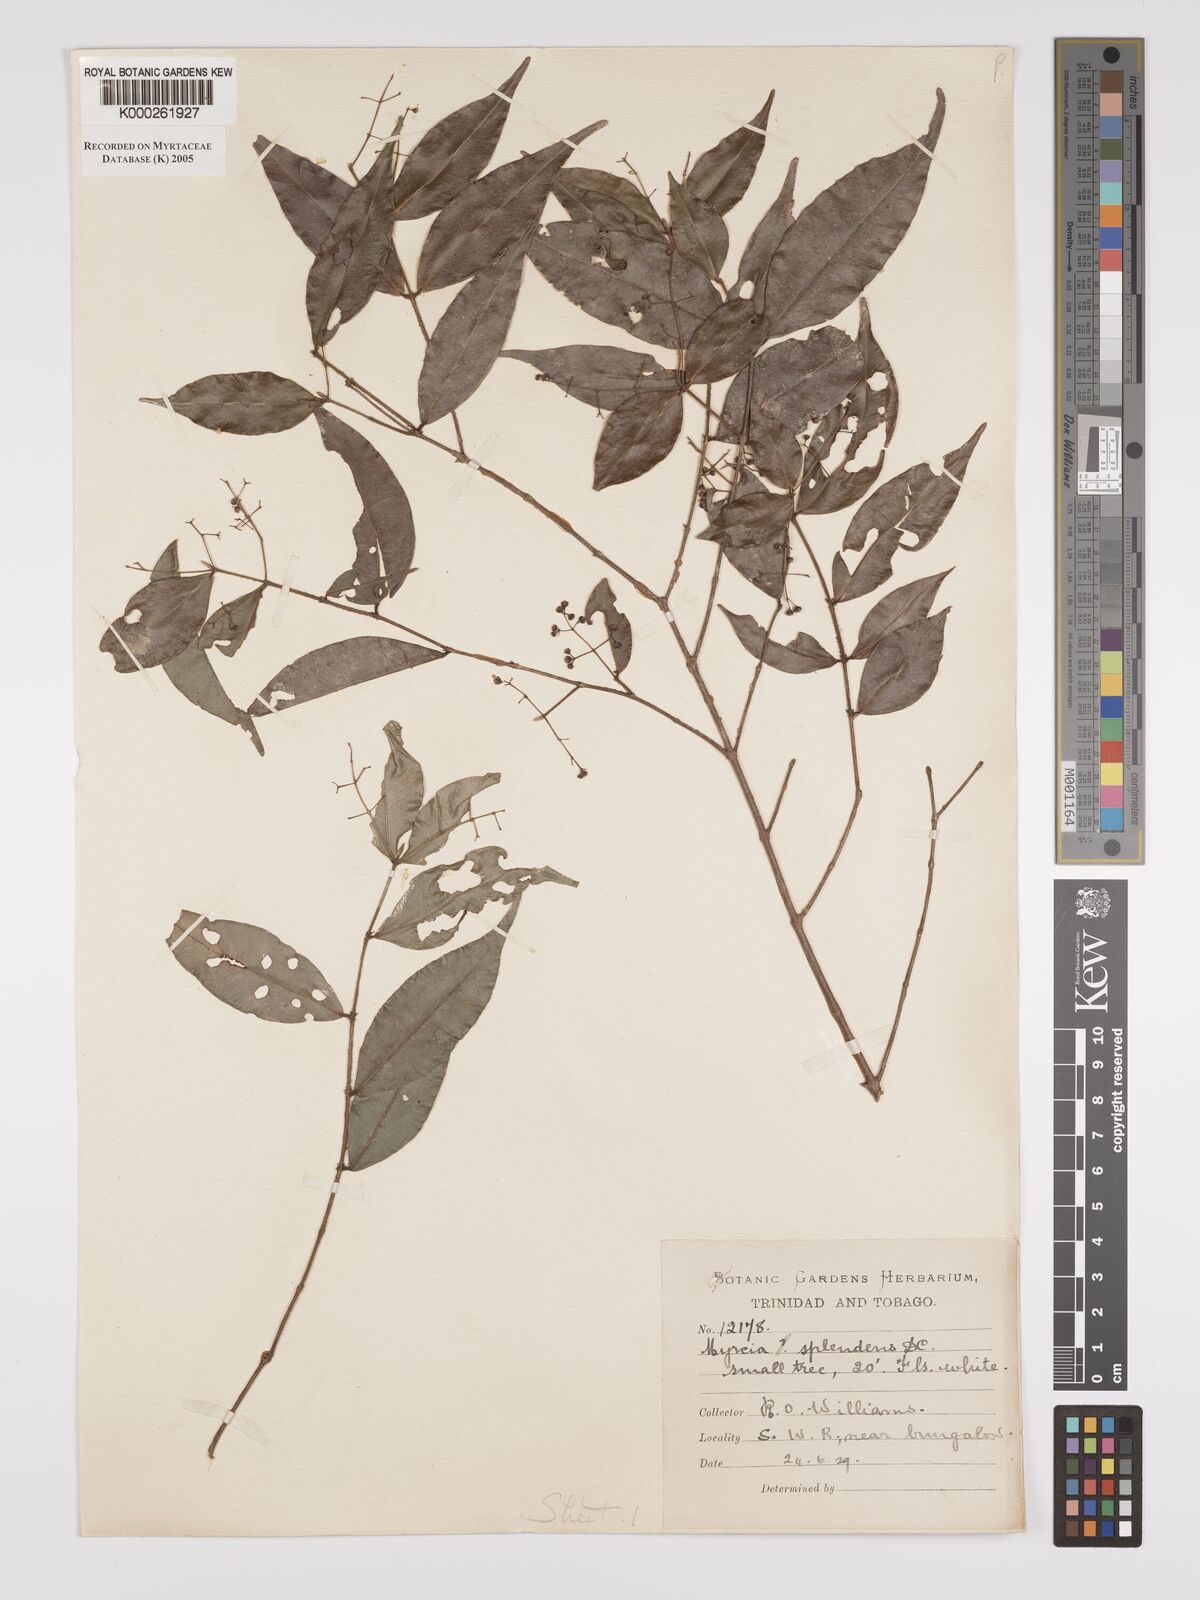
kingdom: Plantae
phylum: Tracheophyta
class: Magnoliopsida
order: Myrtales
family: Myrtaceae
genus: Myrcia
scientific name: Myrcia splendens
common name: Surinam cherry
